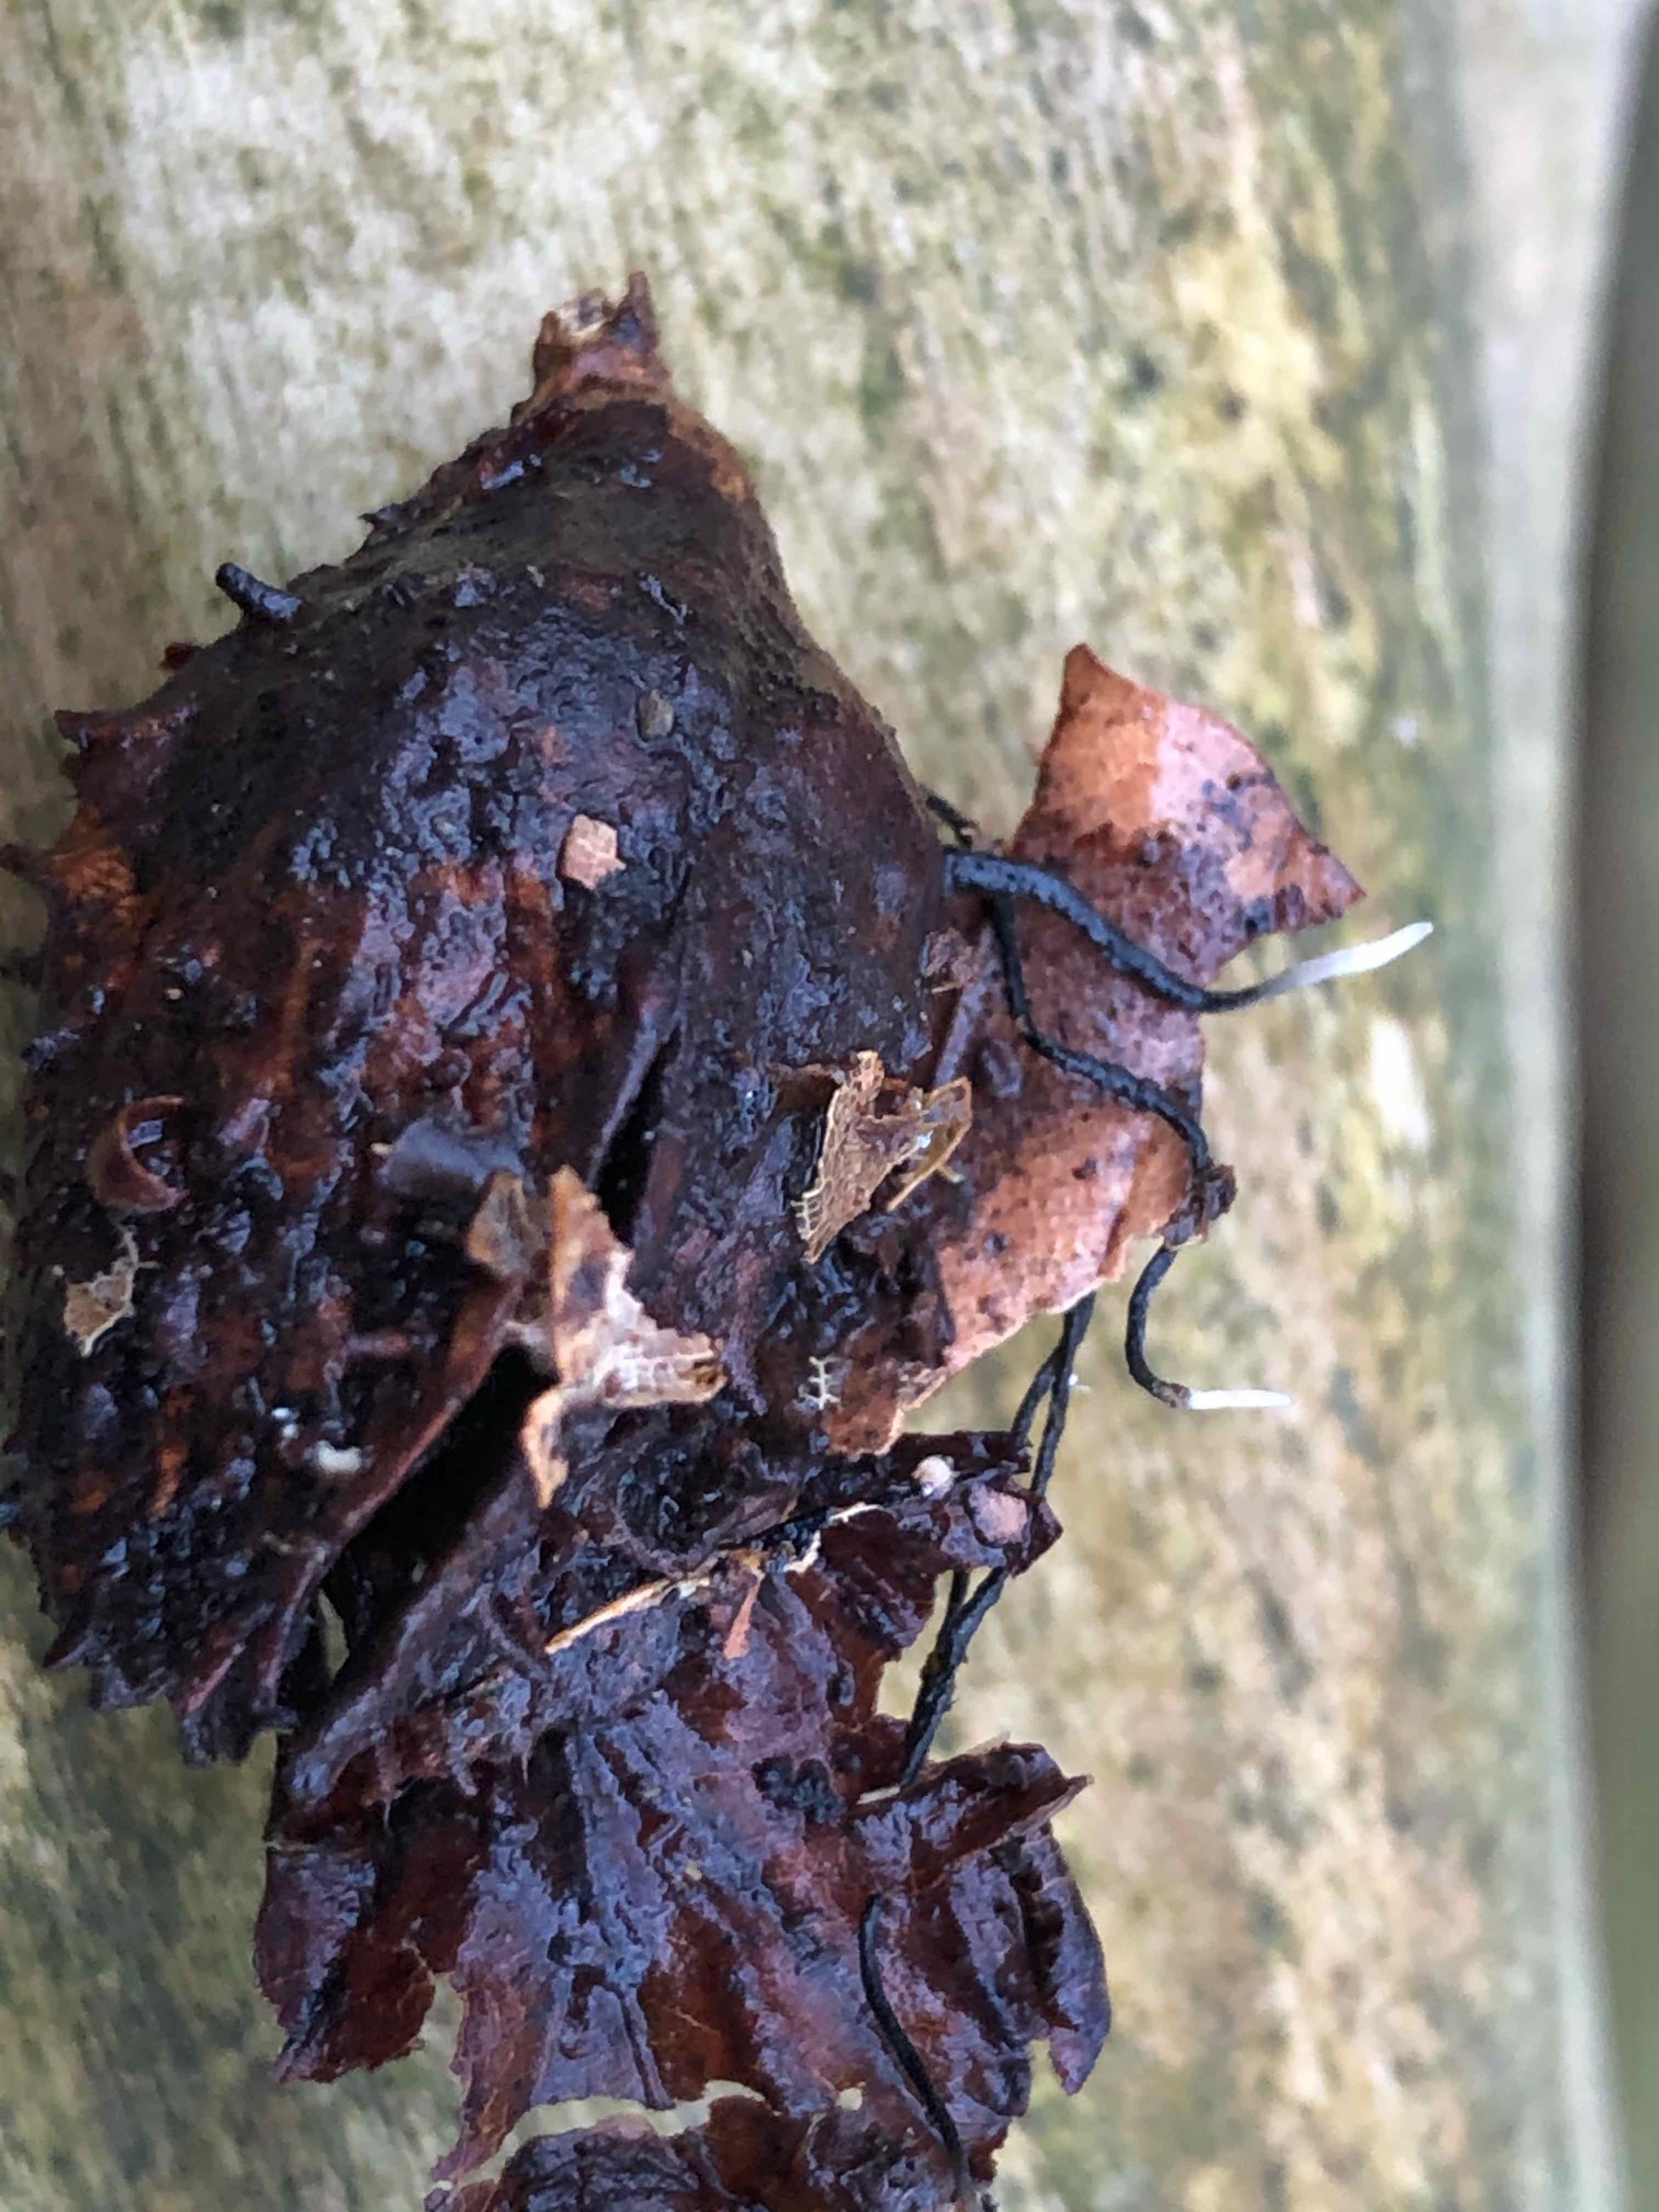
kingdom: Fungi
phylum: Ascomycota
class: Sordariomycetes
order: Xylariales
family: Xylariaceae
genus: Xylaria
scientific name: Xylaria carpophila
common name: bogskål-stødsvamp
